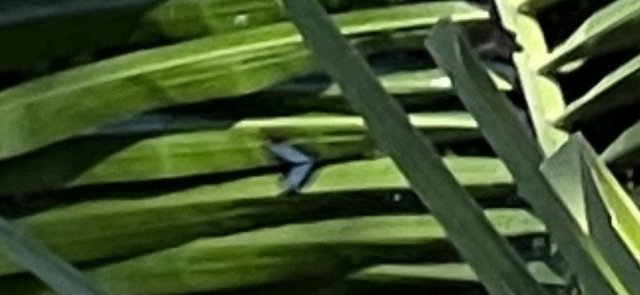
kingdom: Animalia
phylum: Arthropoda
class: Insecta
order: Lepidoptera
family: Nymphalidae
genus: Limenitis
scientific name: Limenitis
